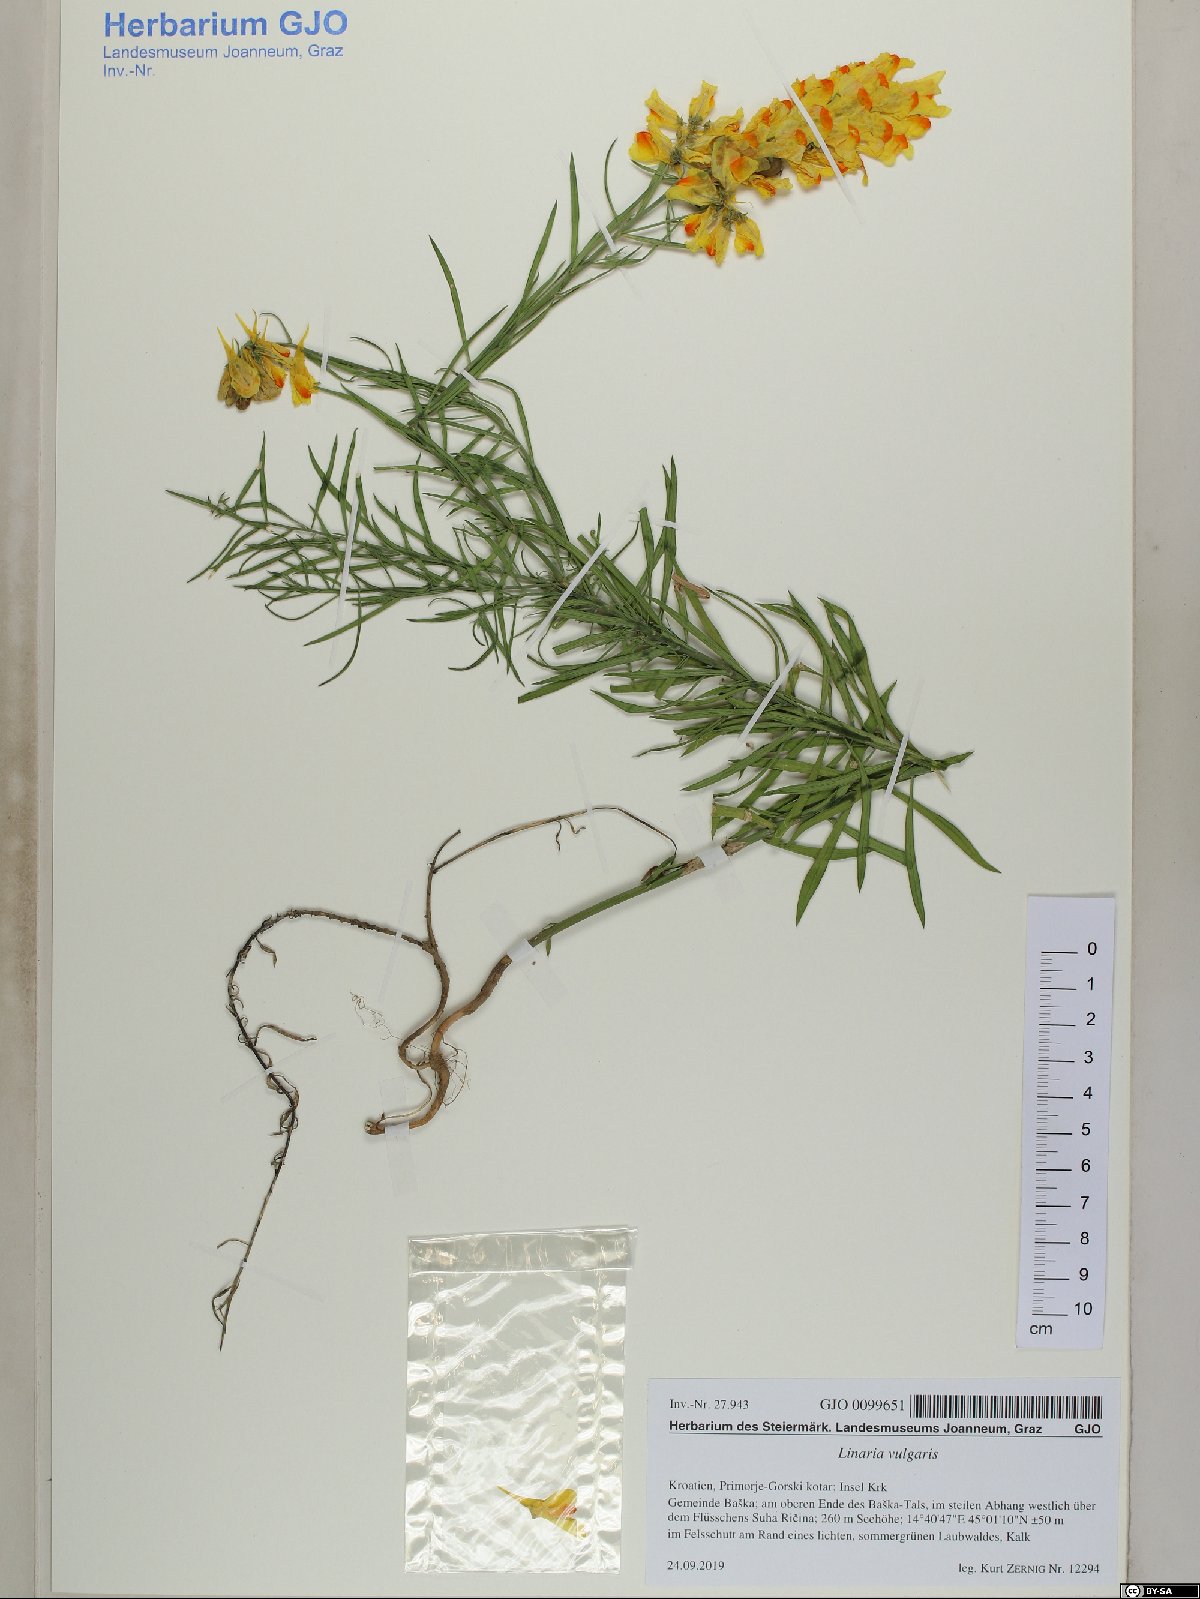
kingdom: Plantae
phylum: Tracheophyta
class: Magnoliopsida
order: Lamiales
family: Plantaginaceae
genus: Linaria
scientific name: Linaria vulgaris
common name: Butter and eggs
